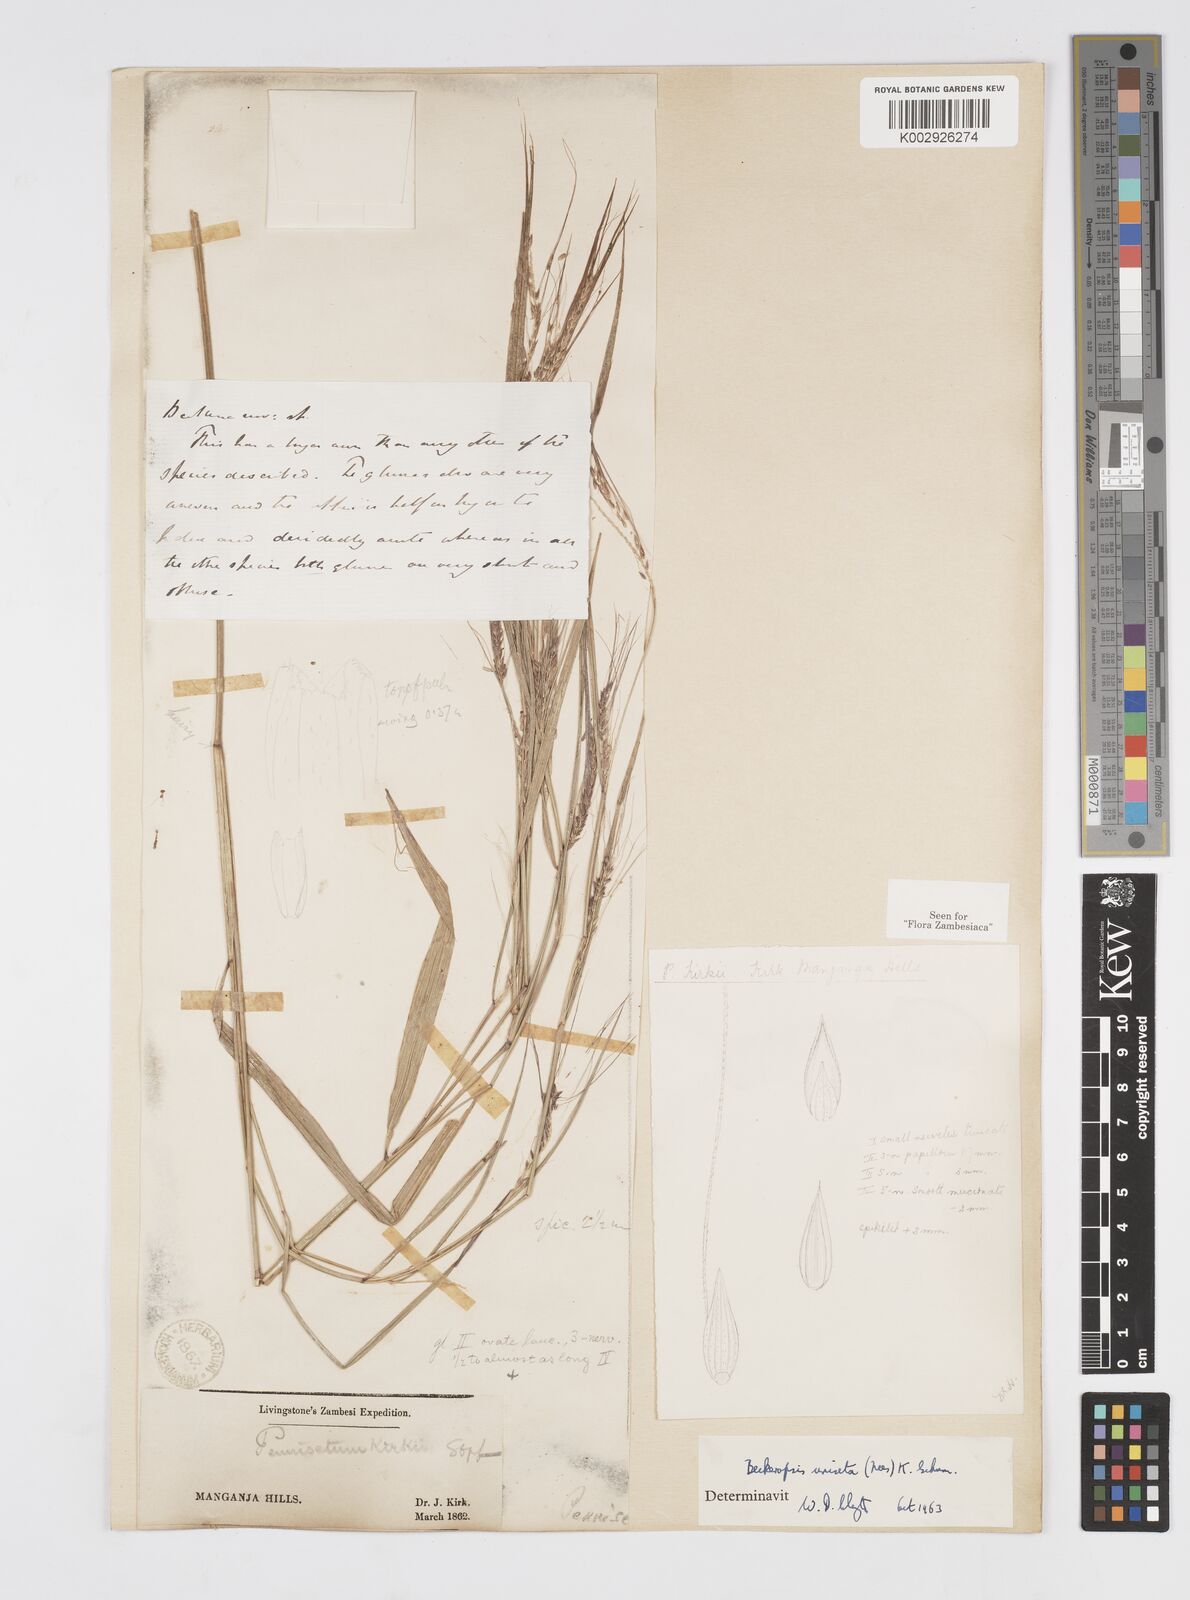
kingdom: Plantae
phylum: Tracheophyta
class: Liliopsida
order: Poales
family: Poaceae
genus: Cenchrus
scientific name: Cenchrus unisetus
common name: Natal grass
